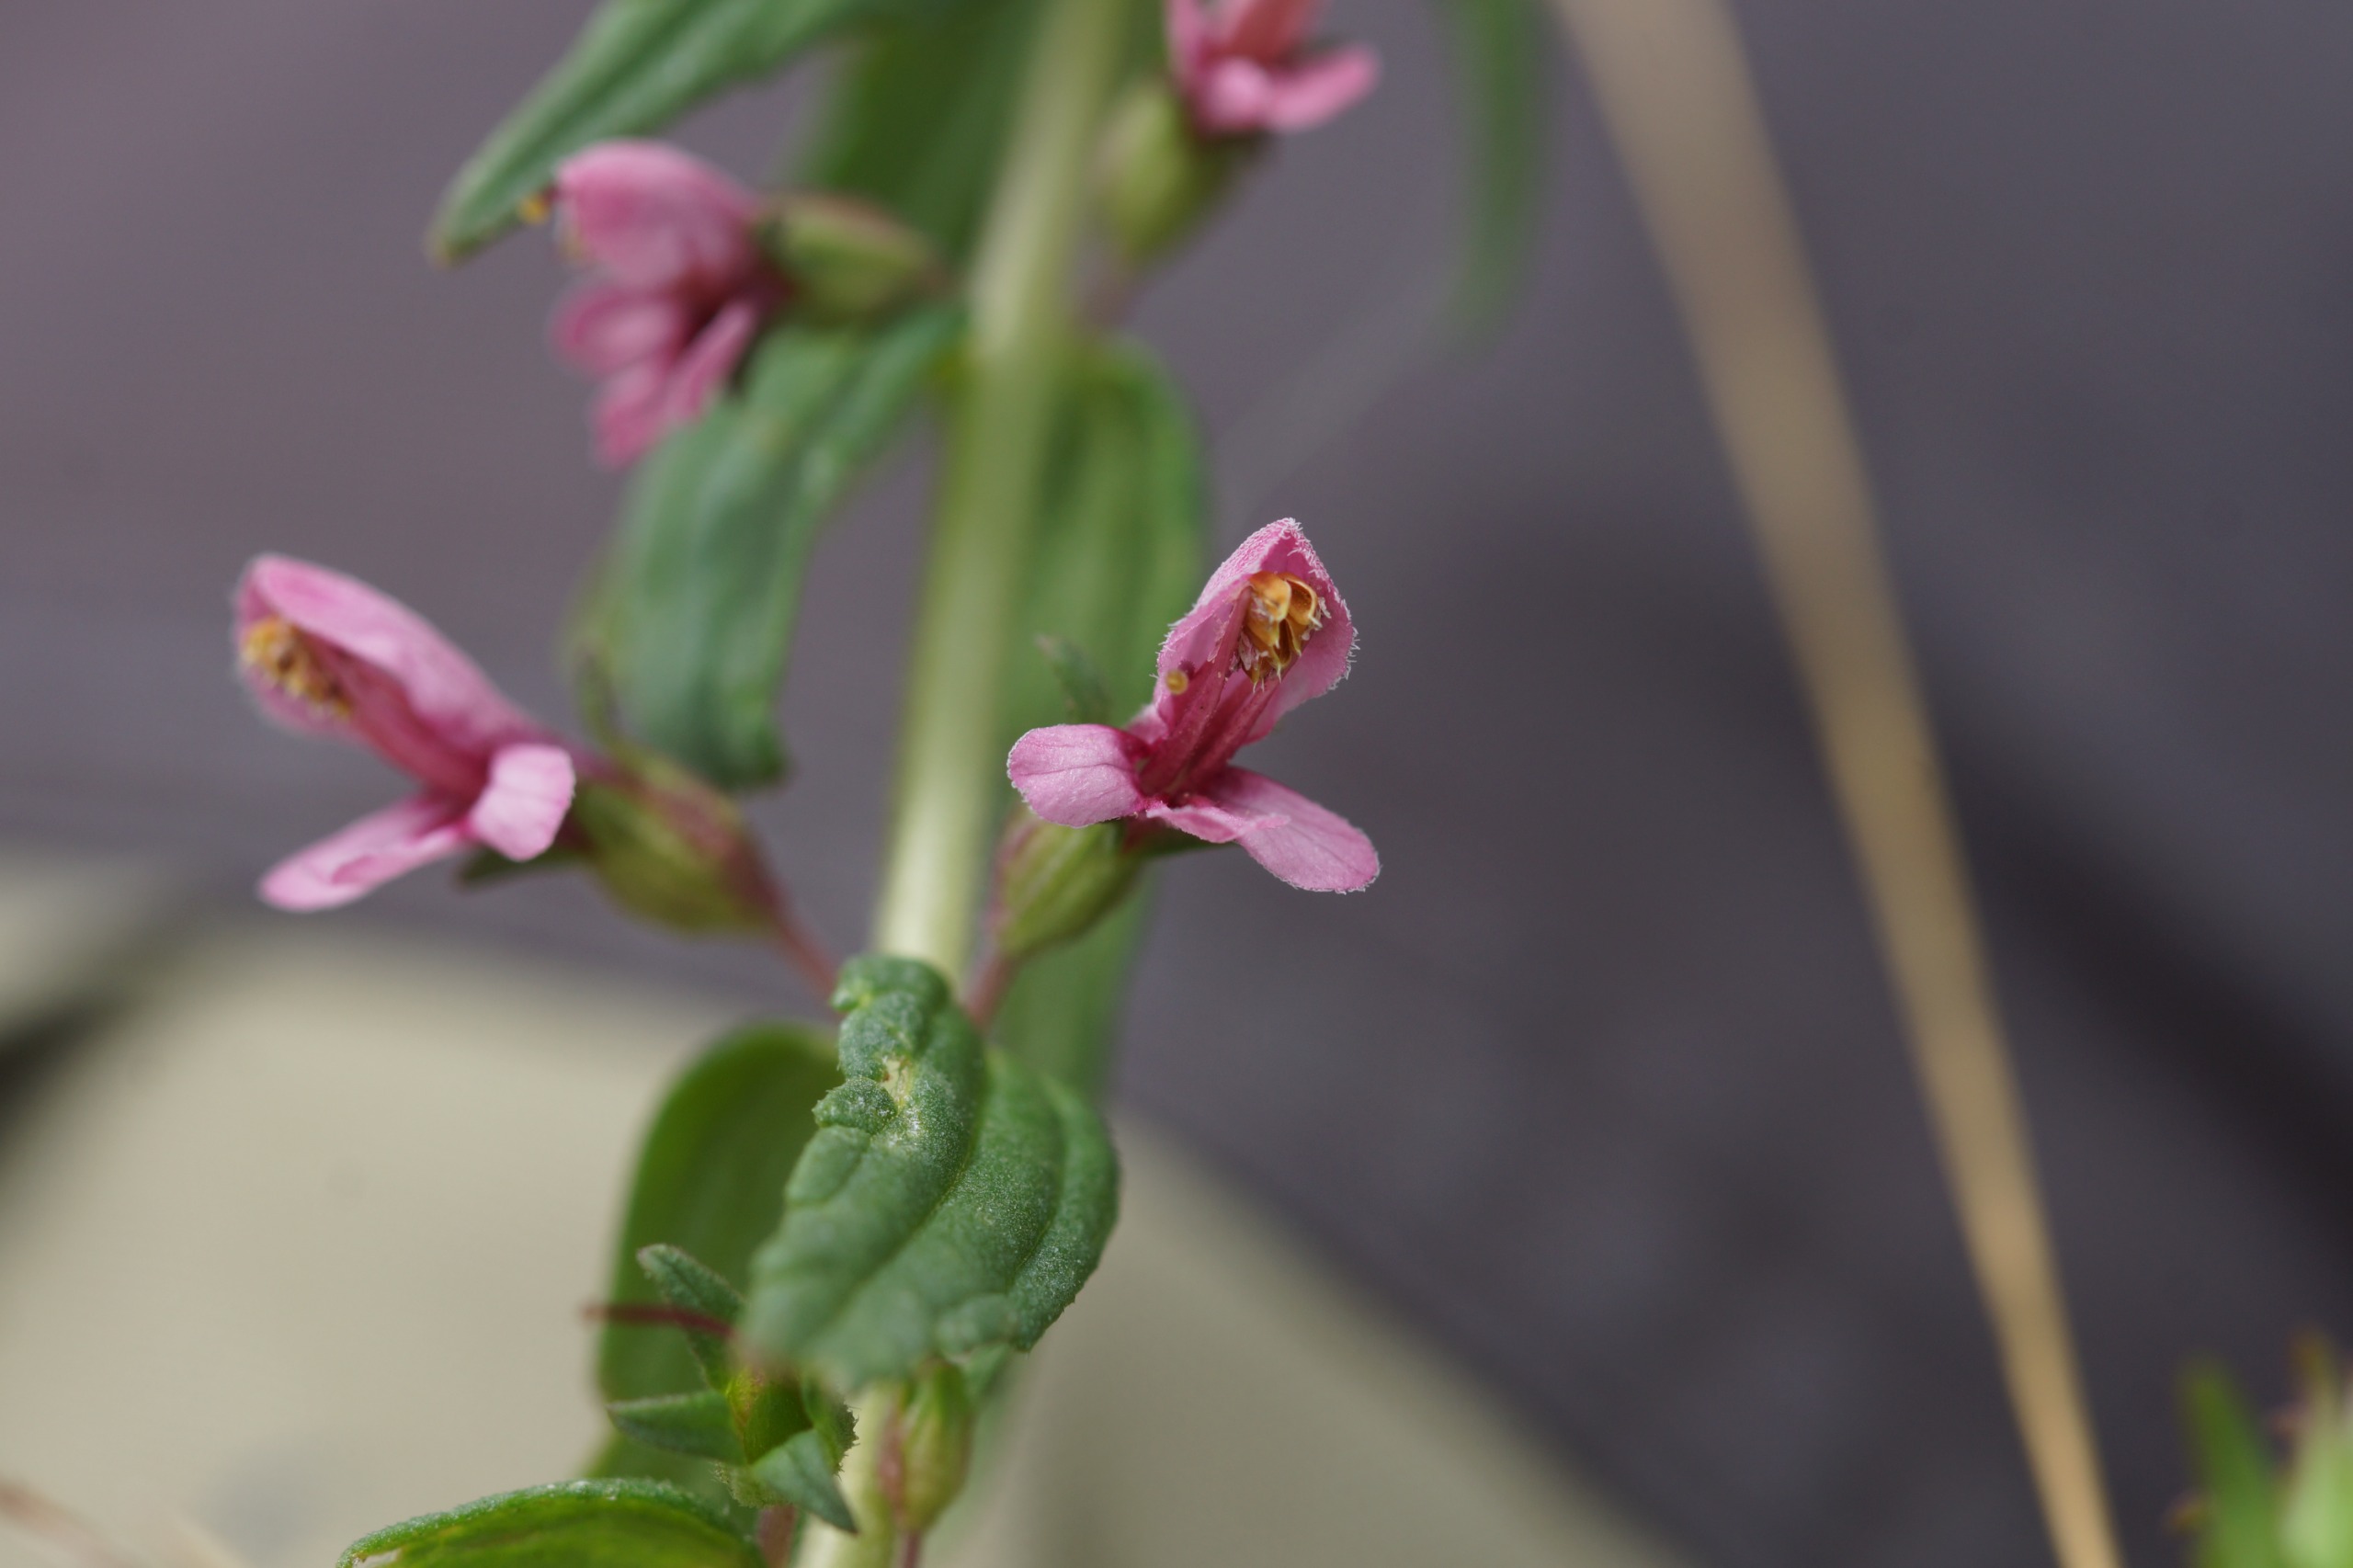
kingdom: Plantae
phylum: Tracheophyta
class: Magnoliopsida
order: Lamiales
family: Orobanchaceae
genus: Odontites
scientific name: Odontites vulgaris
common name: Høst-rødtop
